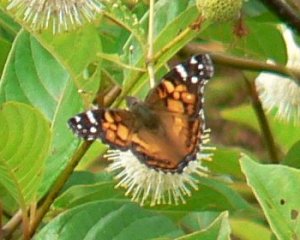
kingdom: Animalia
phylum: Arthropoda
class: Insecta
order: Lepidoptera
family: Nymphalidae
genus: Vanessa
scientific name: Vanessa virginiensis
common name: American Lady
